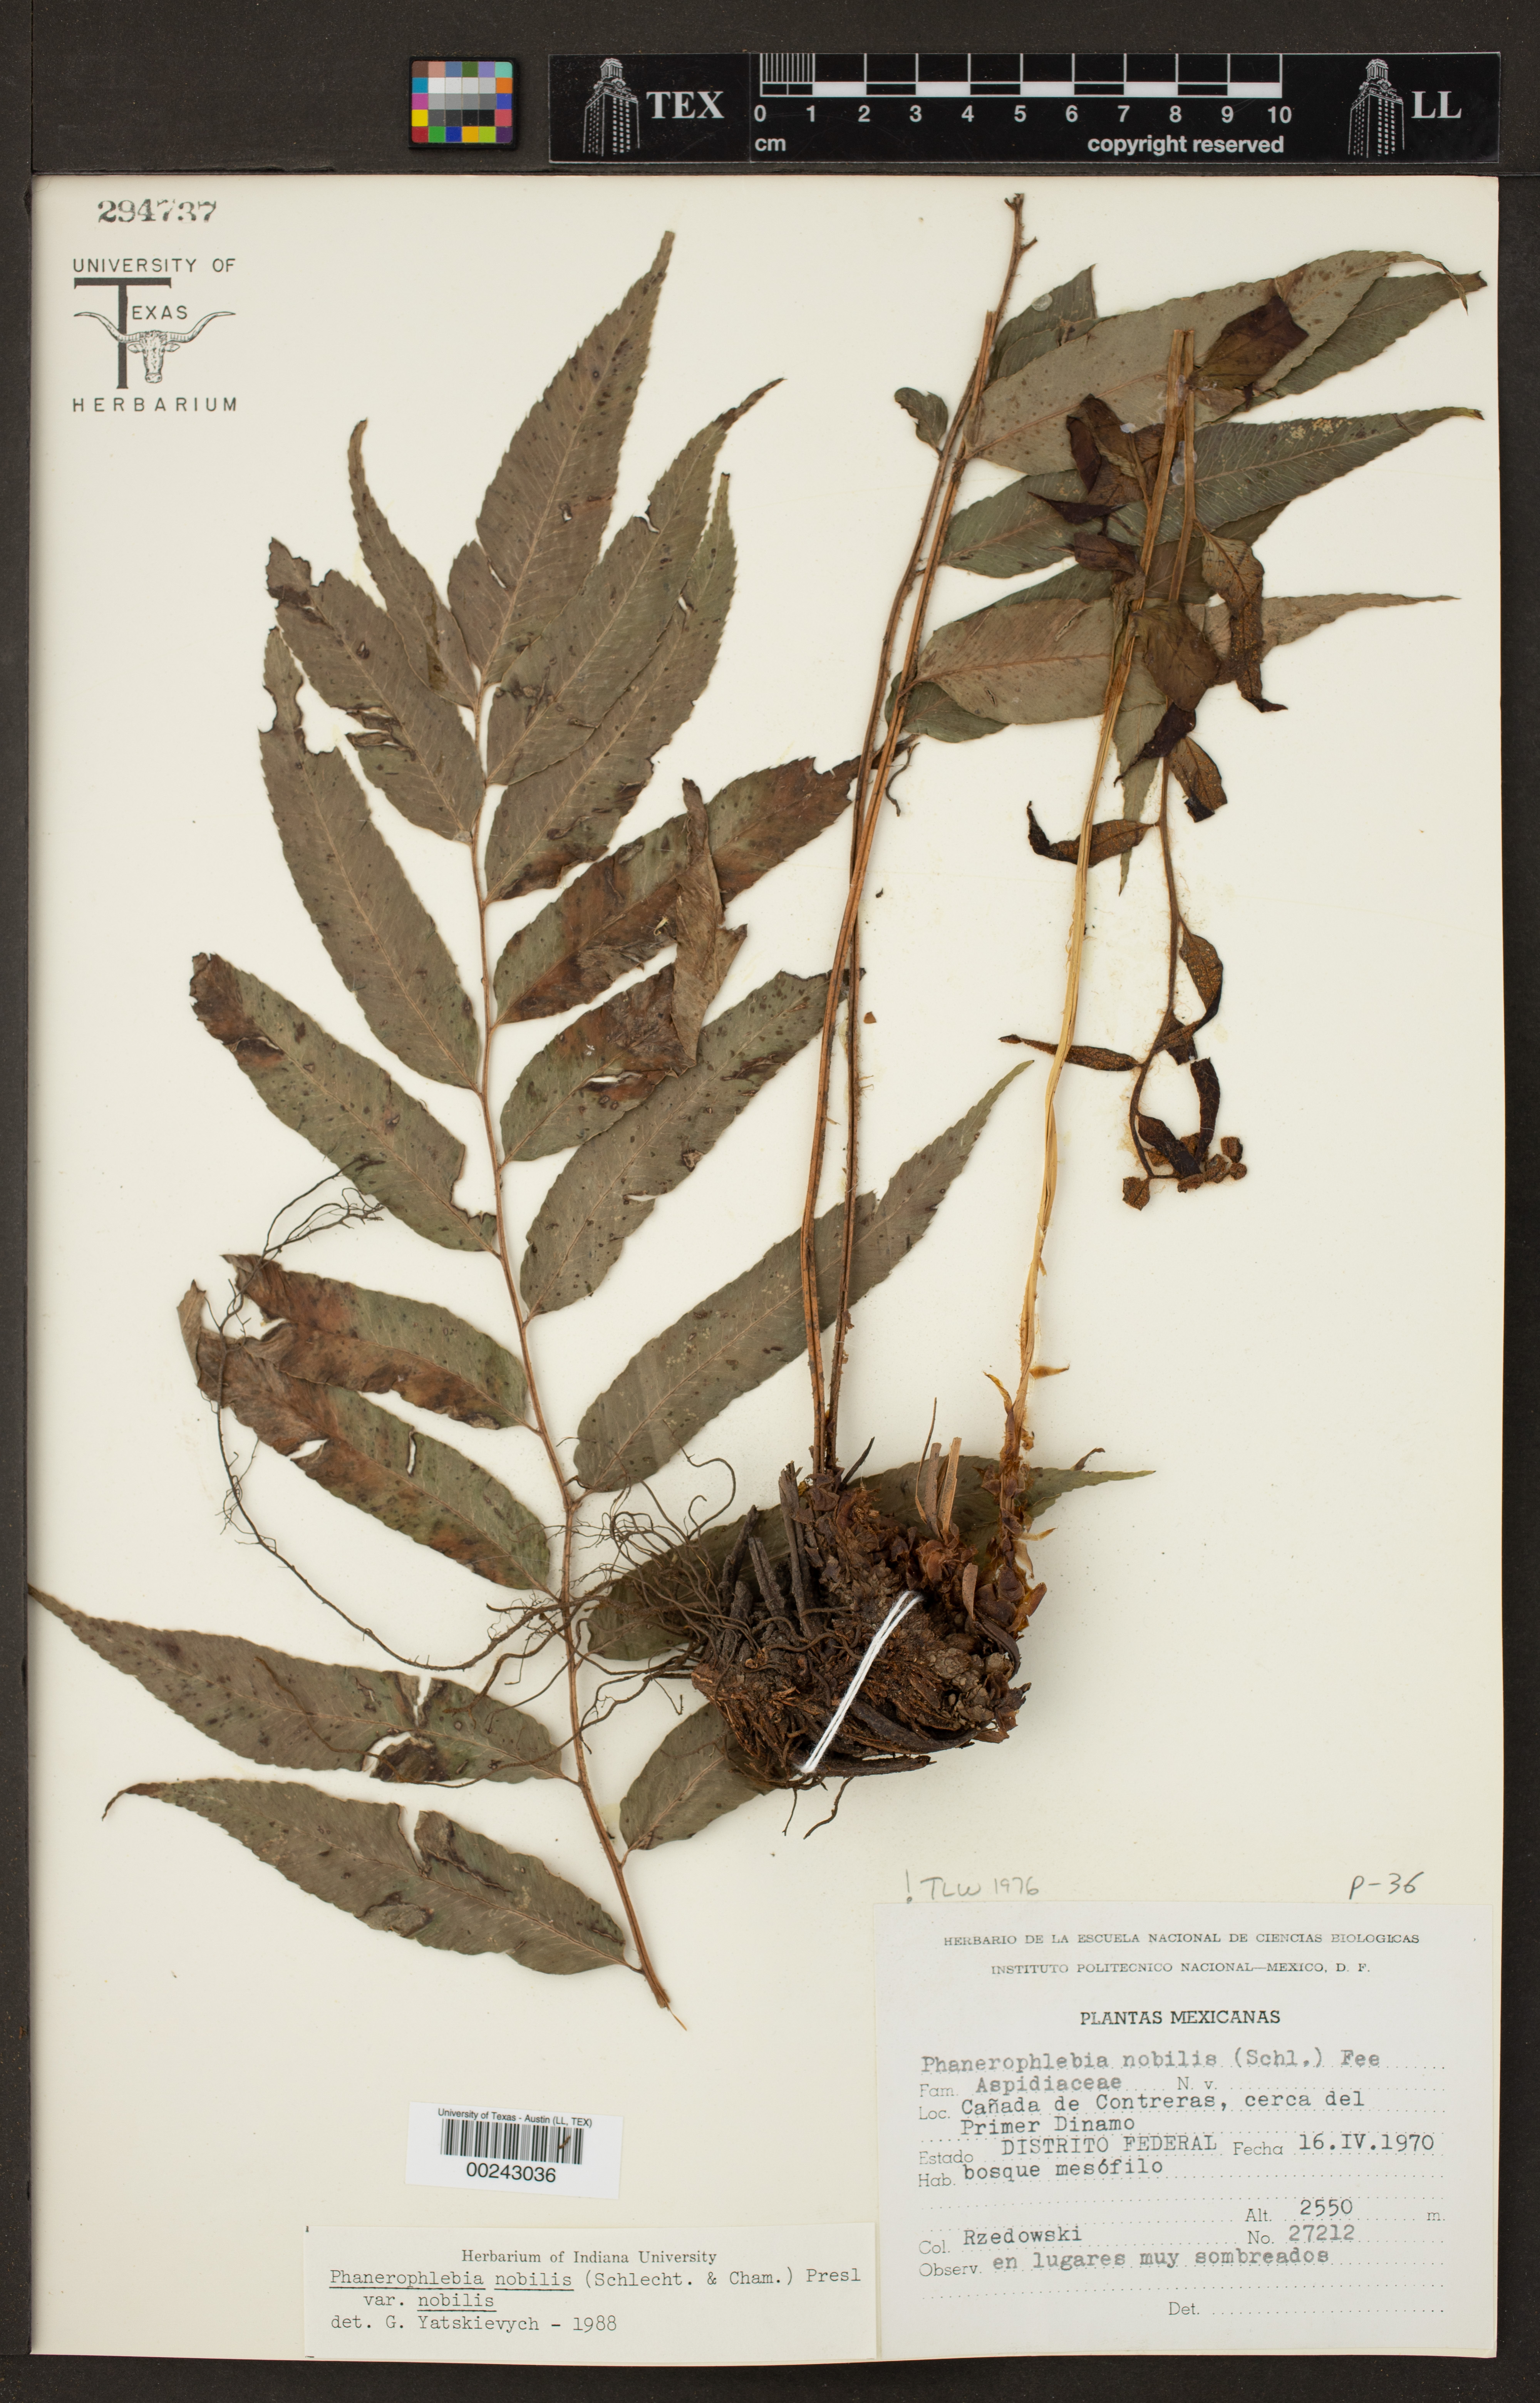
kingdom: Plantae
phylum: Tracheophyta
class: Polypodiopsida
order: Polypodiales
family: Dryopteridaceae
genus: Phanerophlebia
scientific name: Phanerophlebia nobilis
